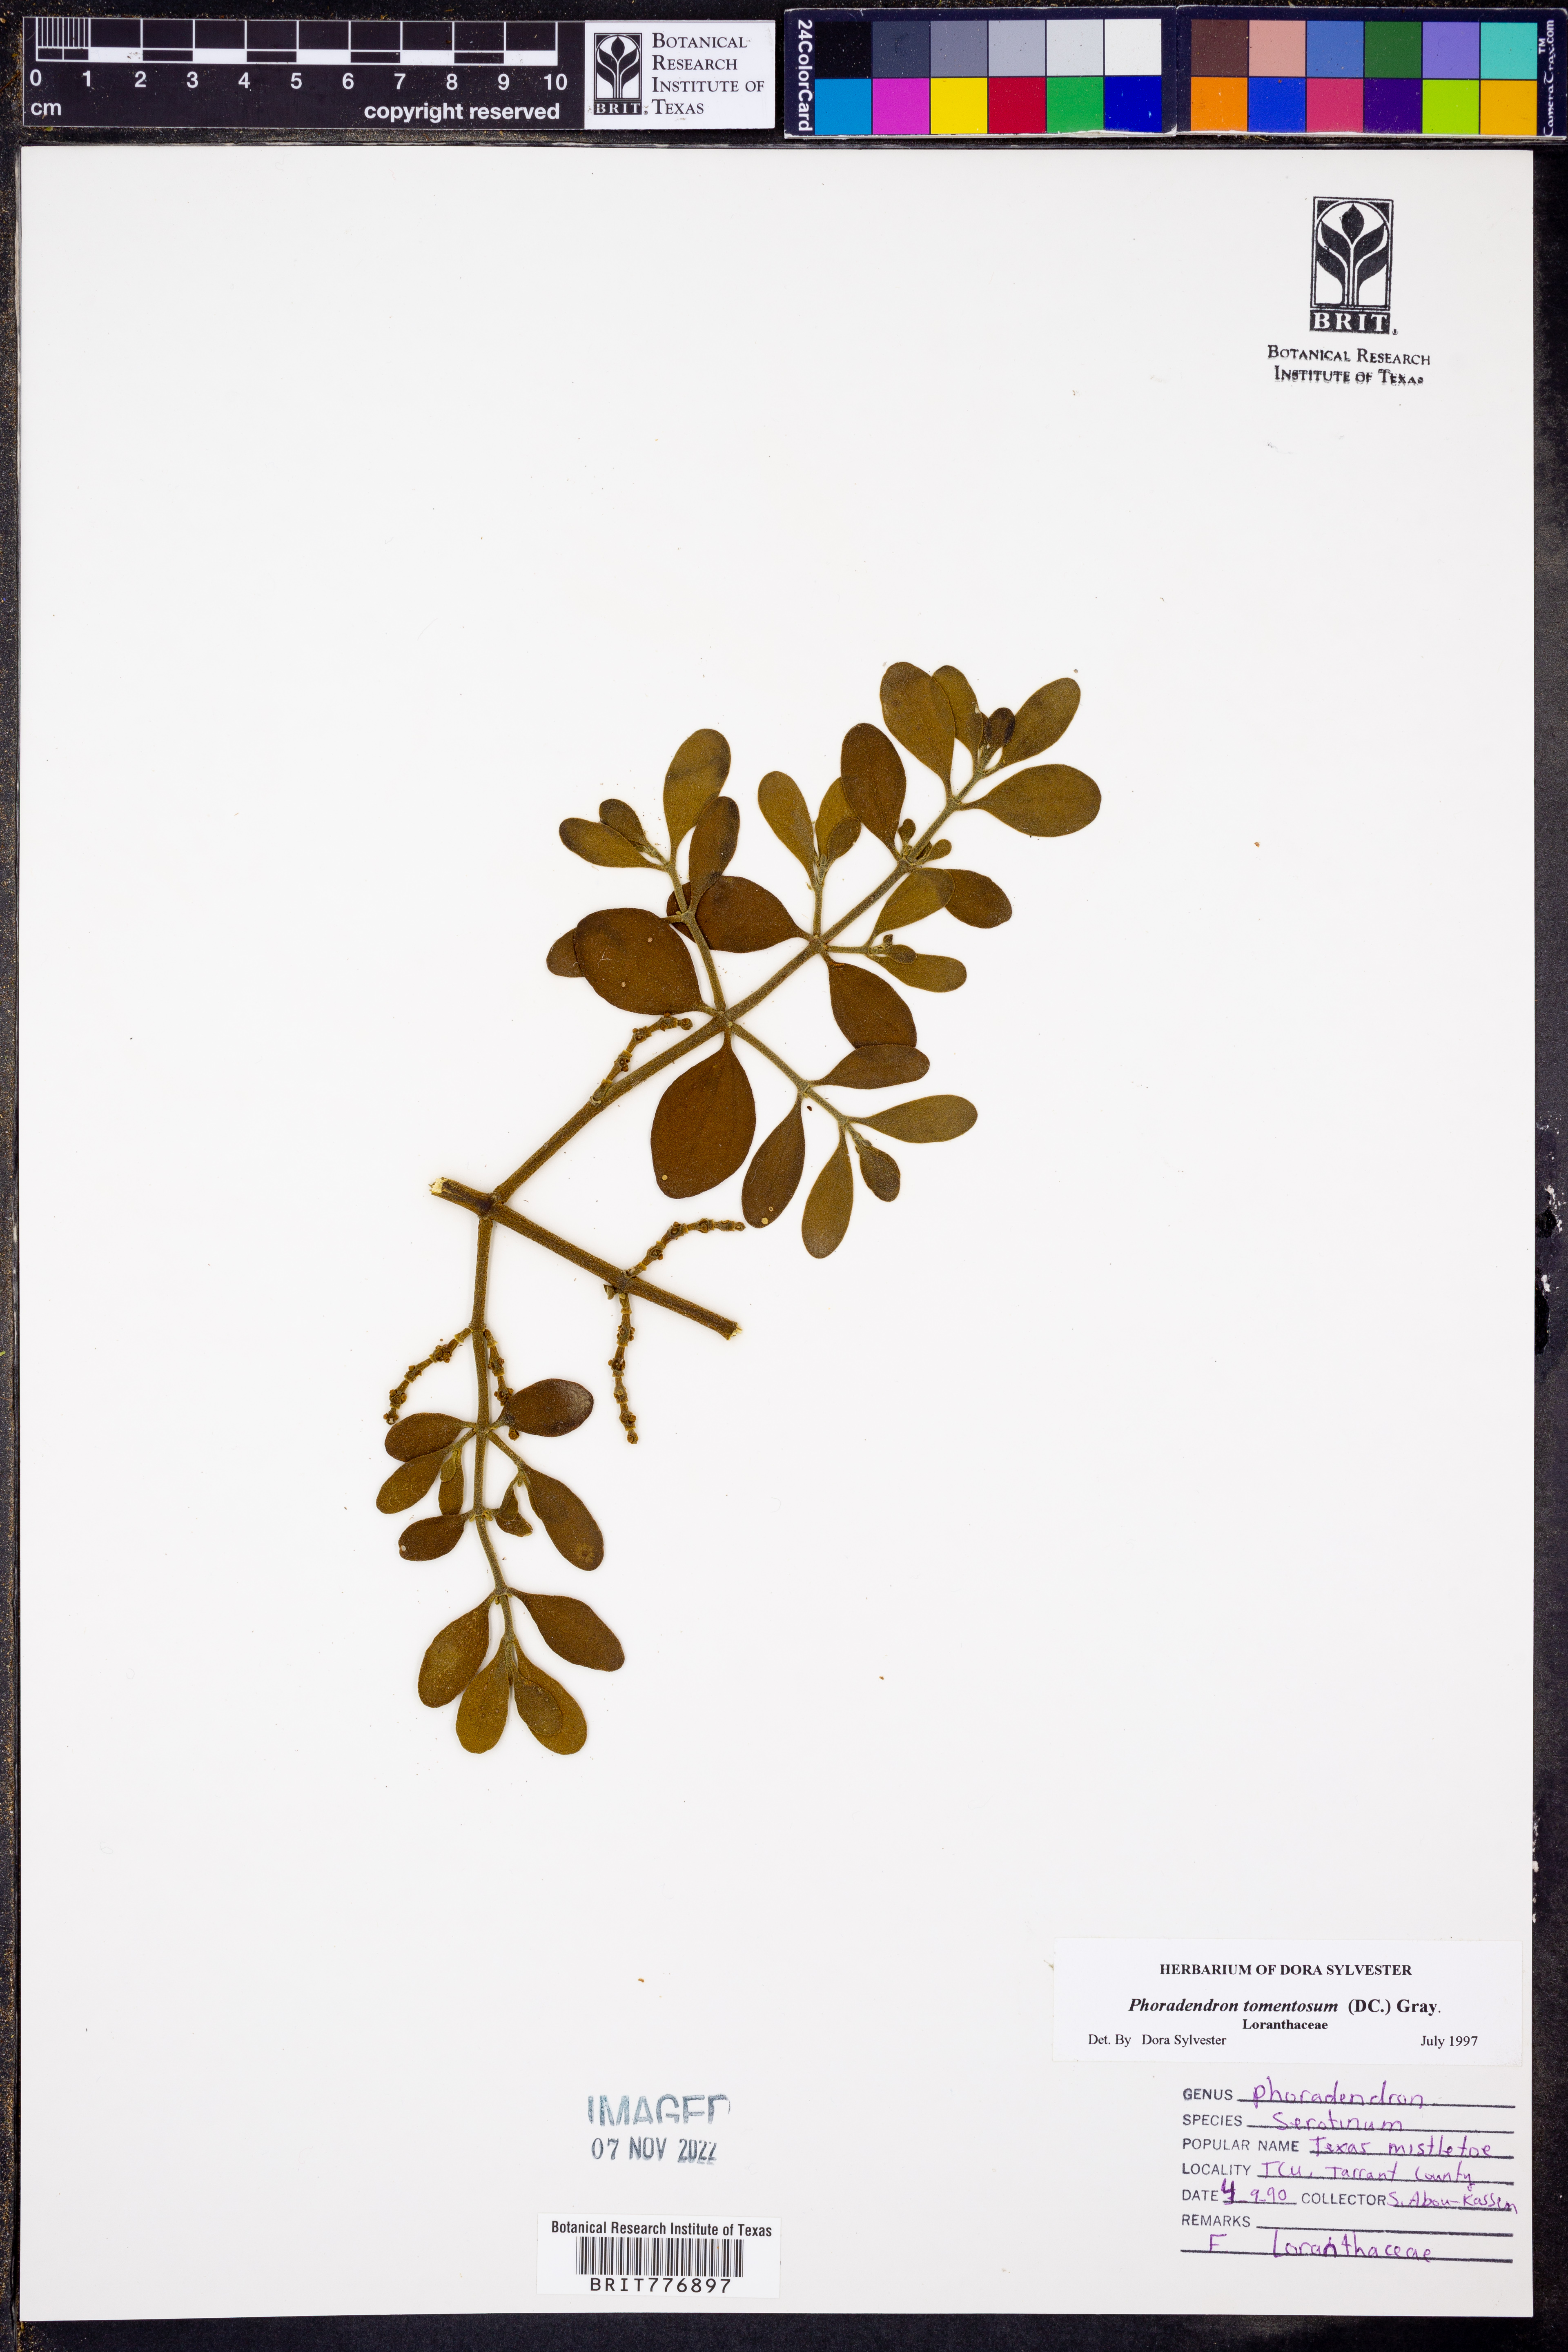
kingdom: Plantae
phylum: Tracheophyta
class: Magnoliopsida
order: Santalales
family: Viscaceae
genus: Phoradendron
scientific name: Phoradendron leucarpum
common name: Pacific mistletoe
